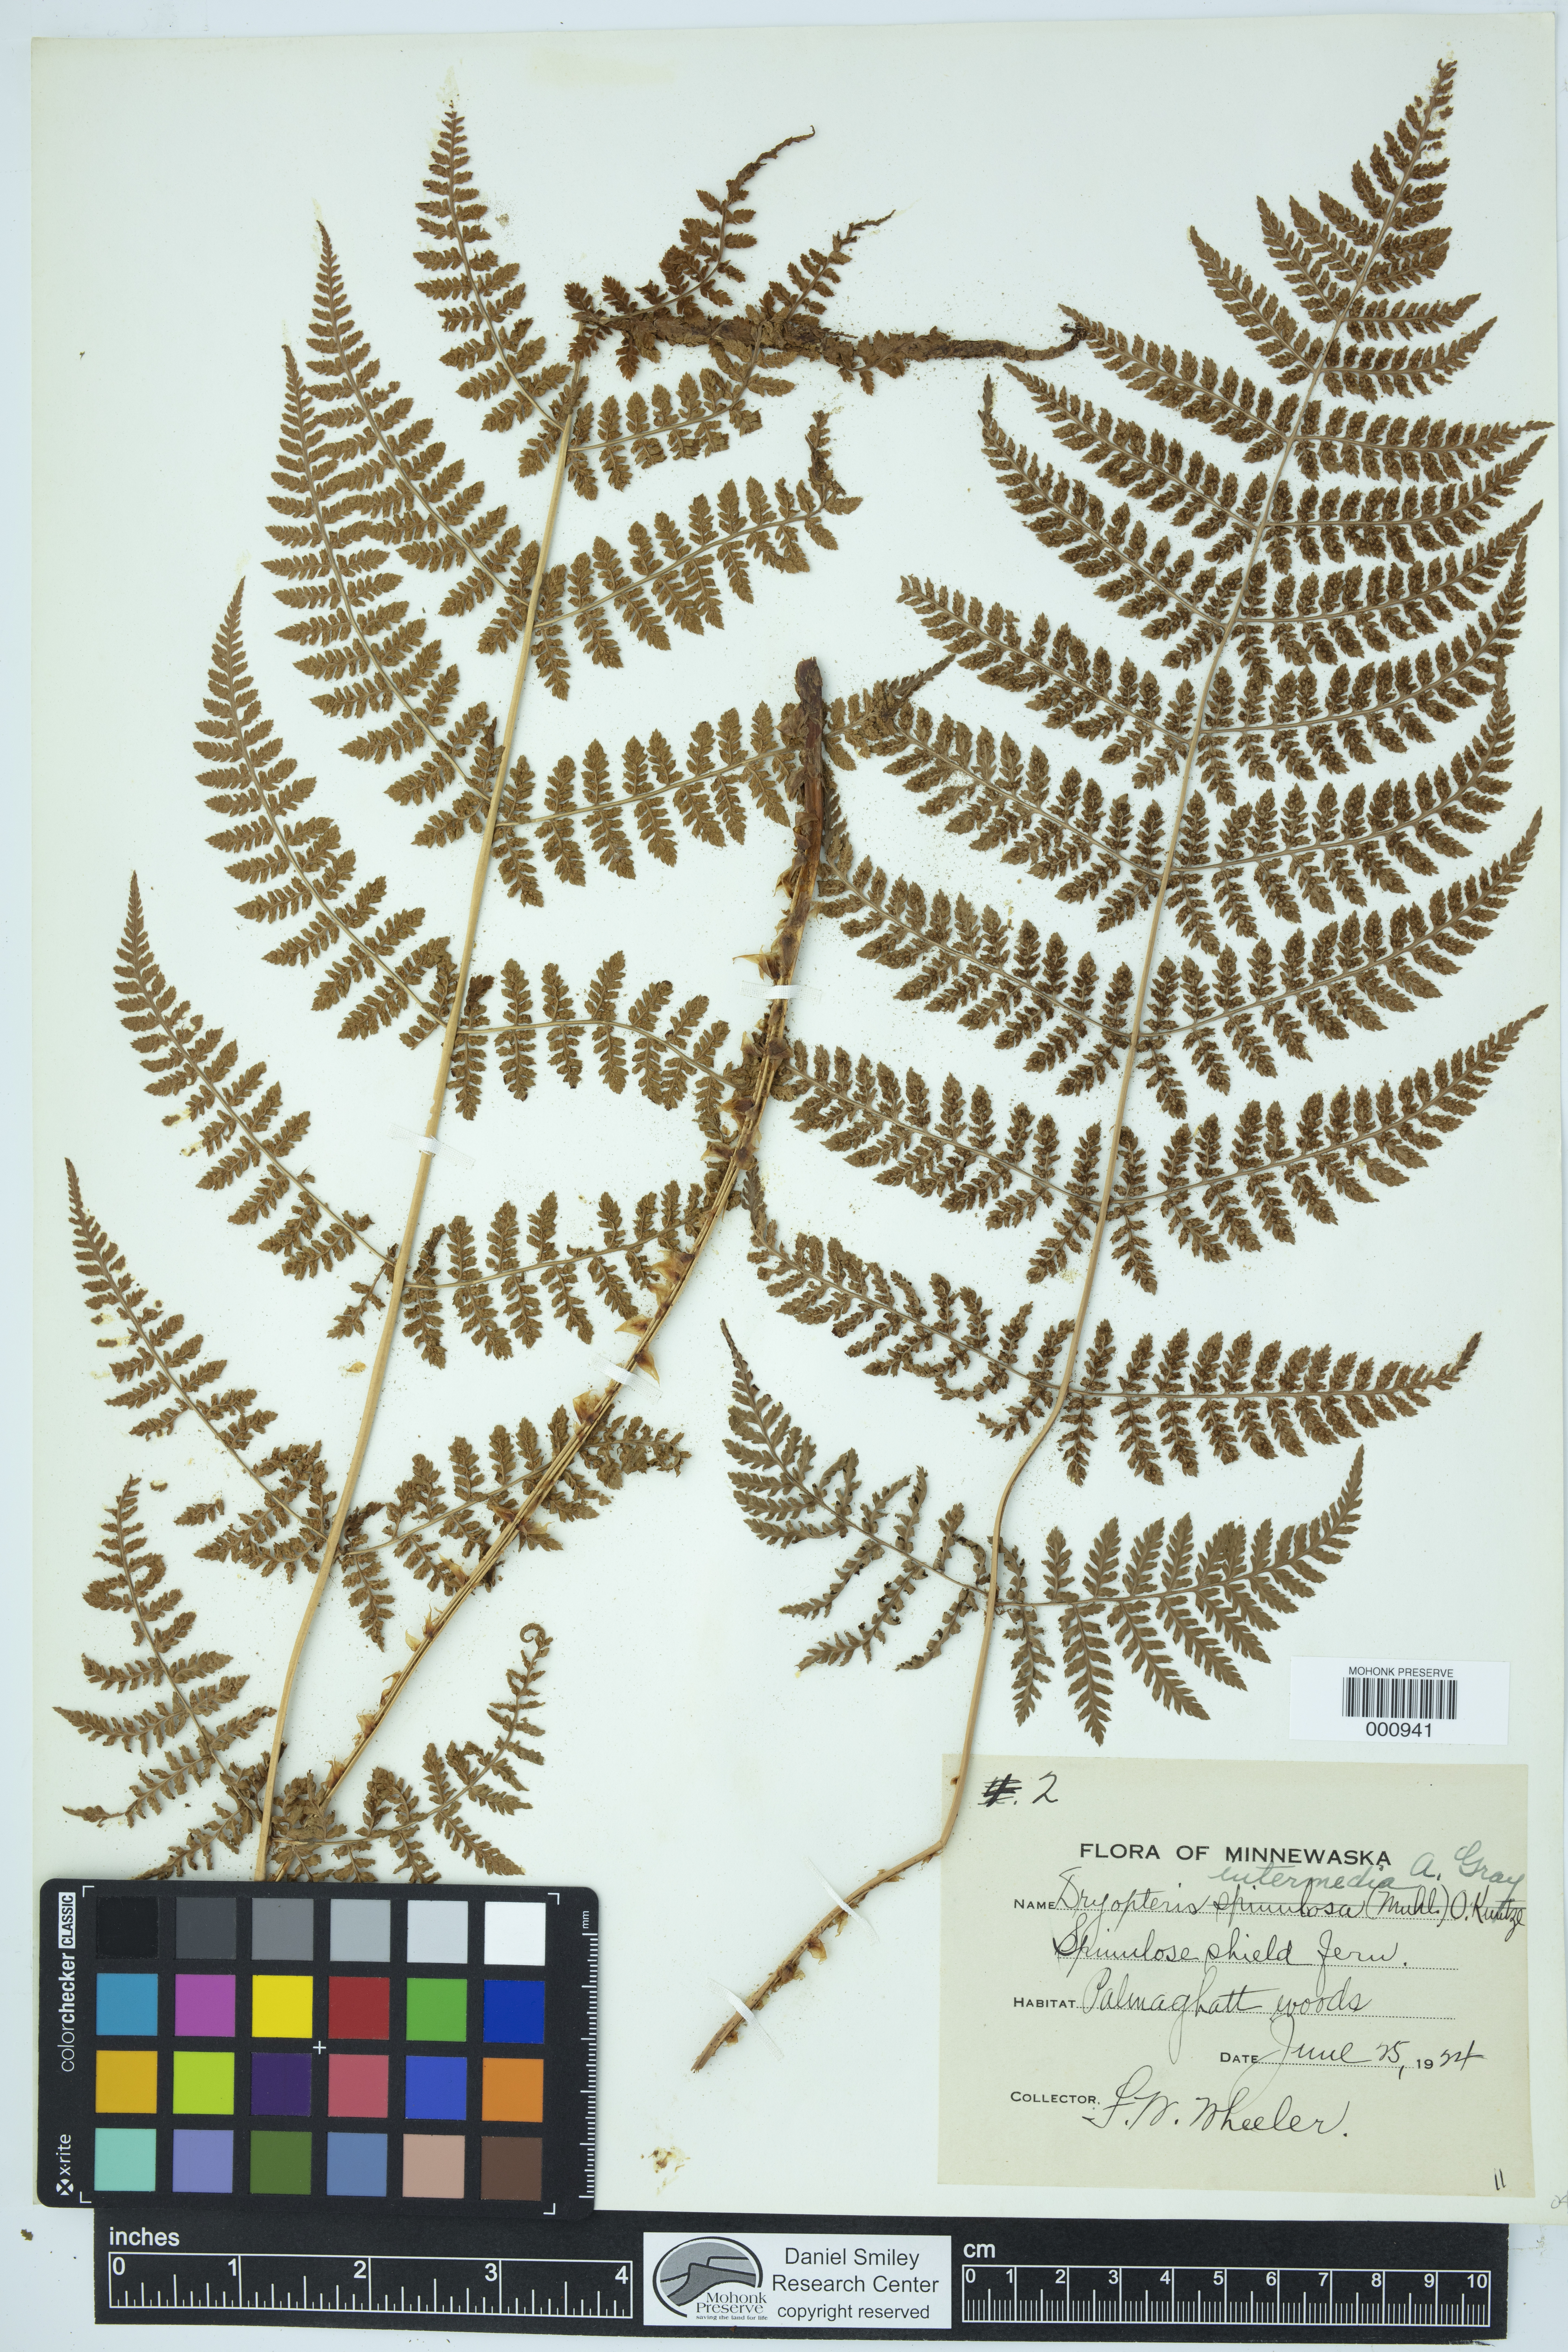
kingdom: Plantae
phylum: Tracheophyta
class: Polypodiopsida
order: Polypodiales
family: Dryopteridaceae
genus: Dryopteris
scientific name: Dryopteris intermedia
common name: Evergreen wood fern
